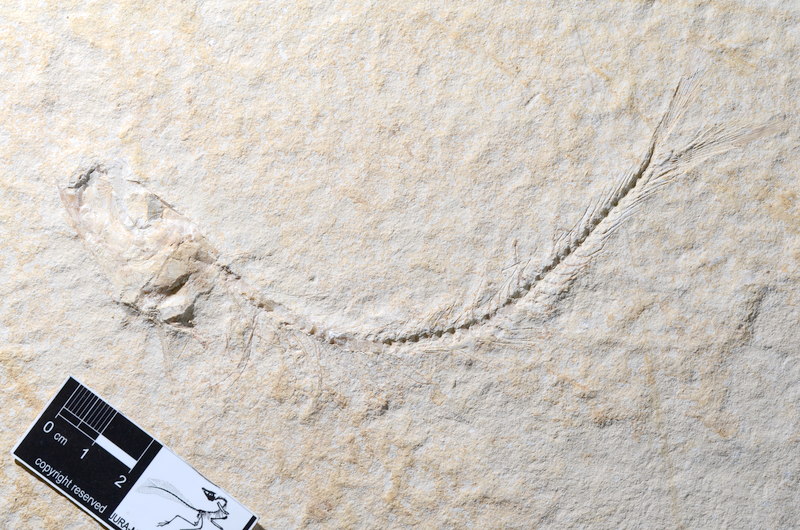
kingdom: Animalia
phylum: Chordata
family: Ascalaboidae
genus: Tharsis
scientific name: Tharsis dubius
